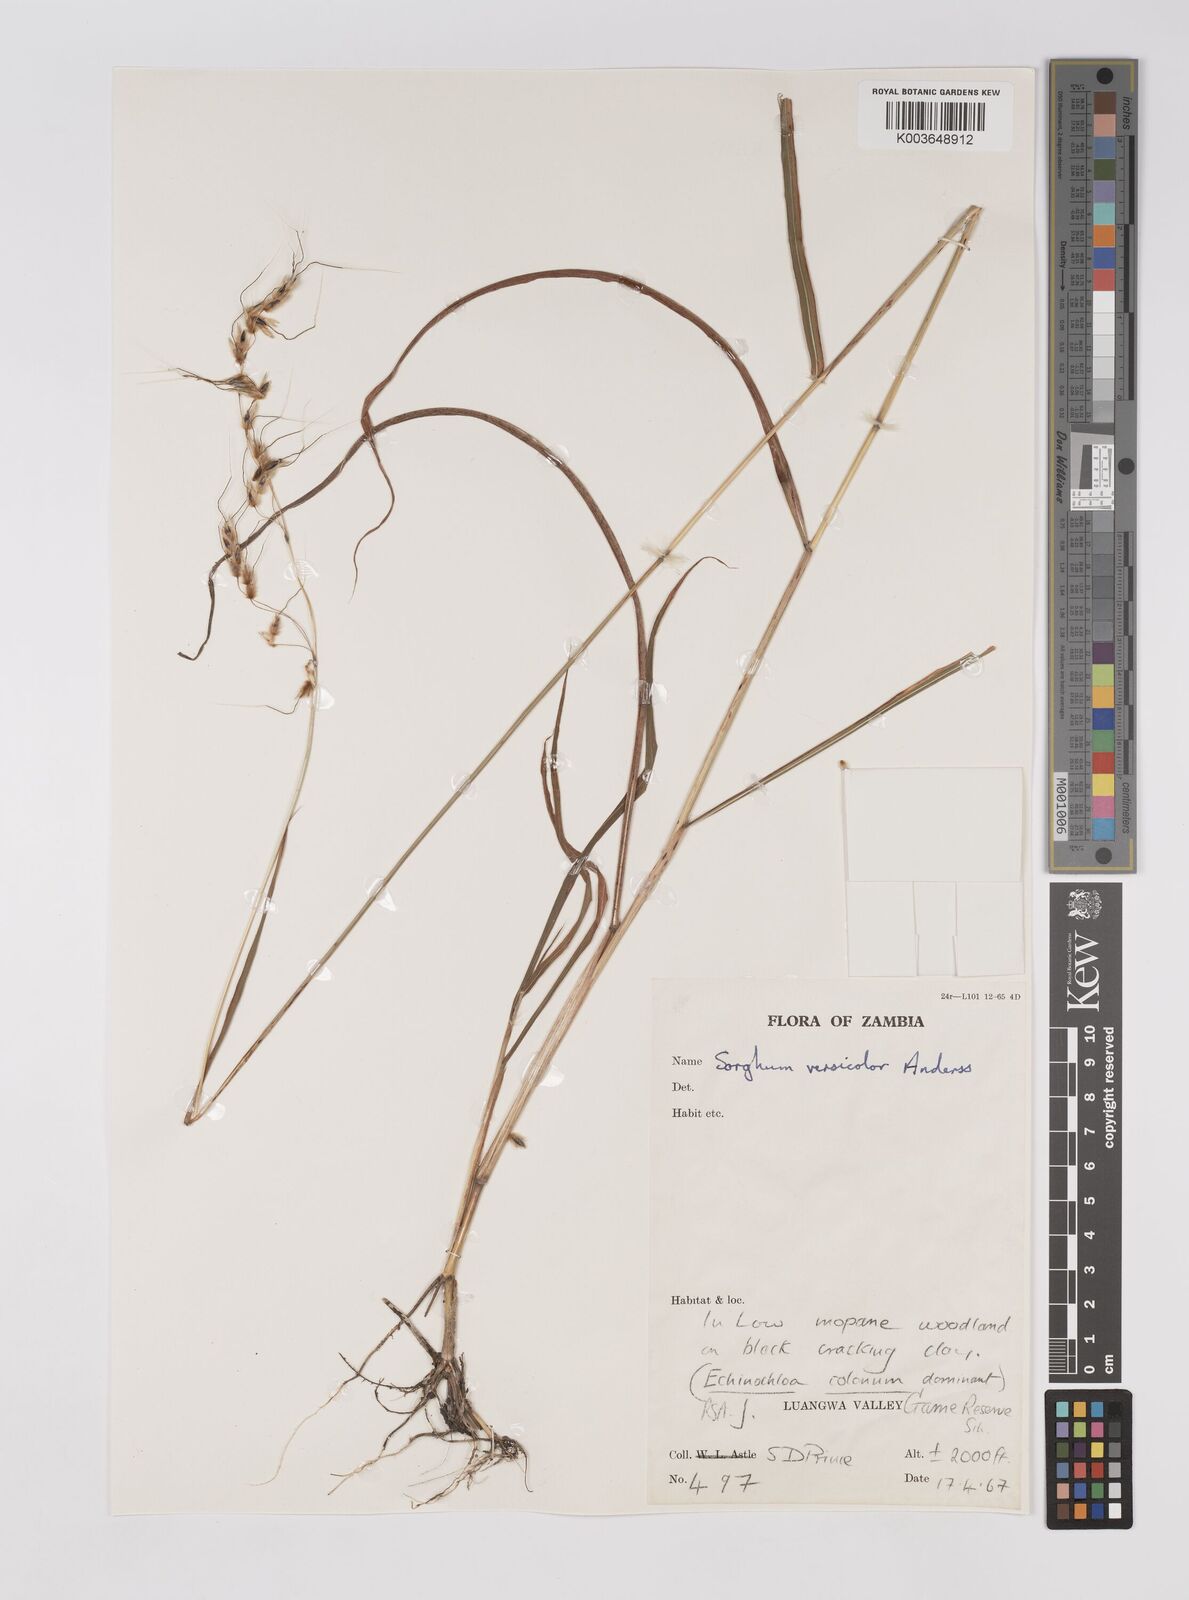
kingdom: Plantae
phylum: Tracheophyta
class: Liliopsida
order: Poales
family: Poaceae
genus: Sarga
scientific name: Sarga versicolor
